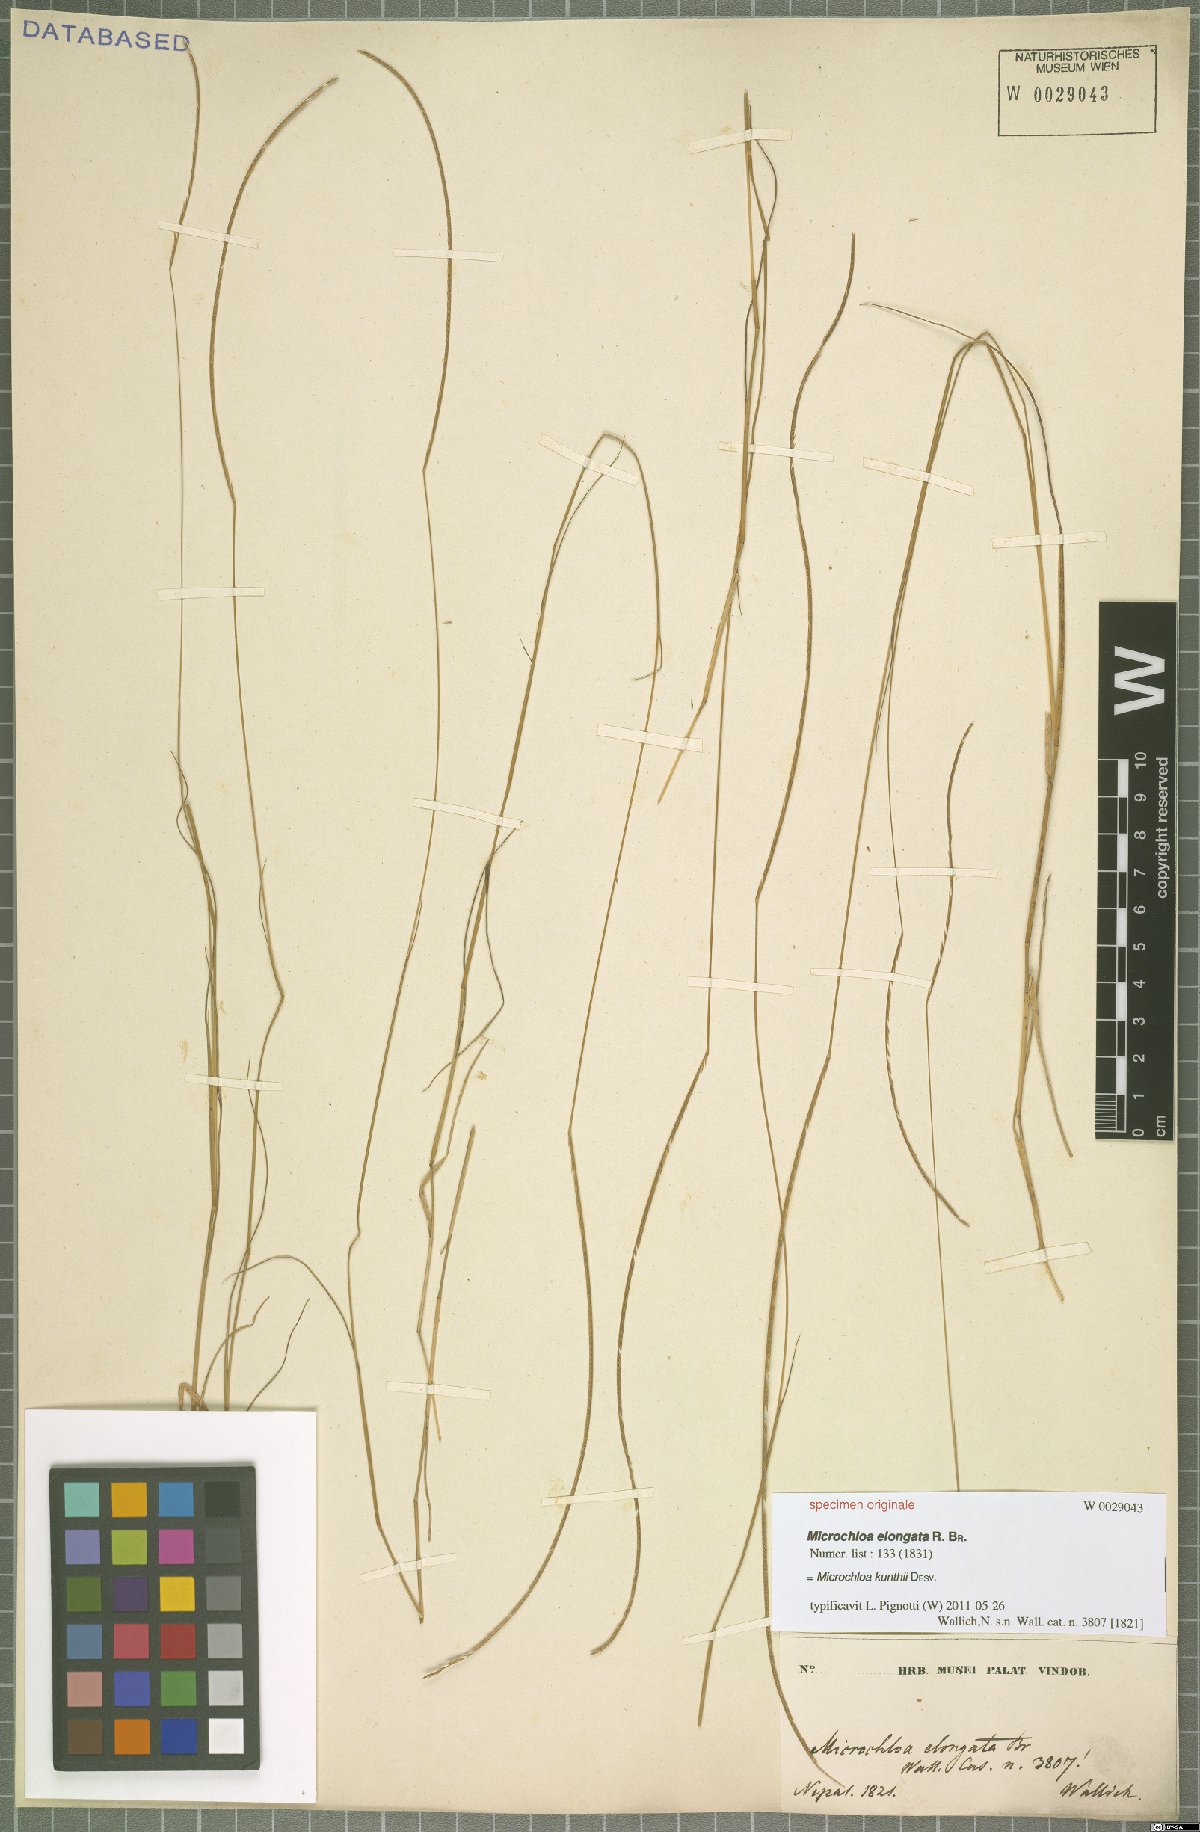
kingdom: Plantae
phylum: Tracheophyta
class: Liliopsida
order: Poales
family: Poaceae
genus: Microchloa
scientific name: Microchloa kunthii
